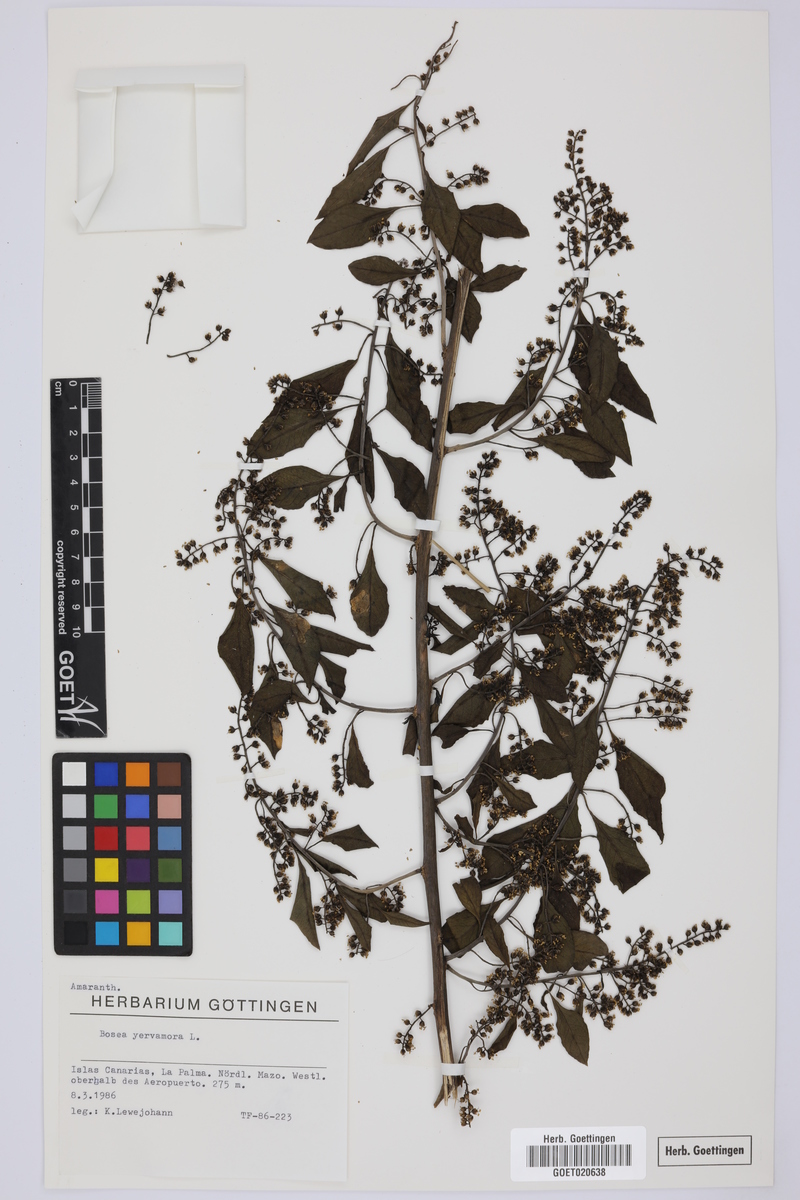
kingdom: Plantae
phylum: Tracheophyta
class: Magnoliopsida
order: Caryophyllales
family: Amaranthaceae
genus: Bosea
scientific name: Bosea yervamora
